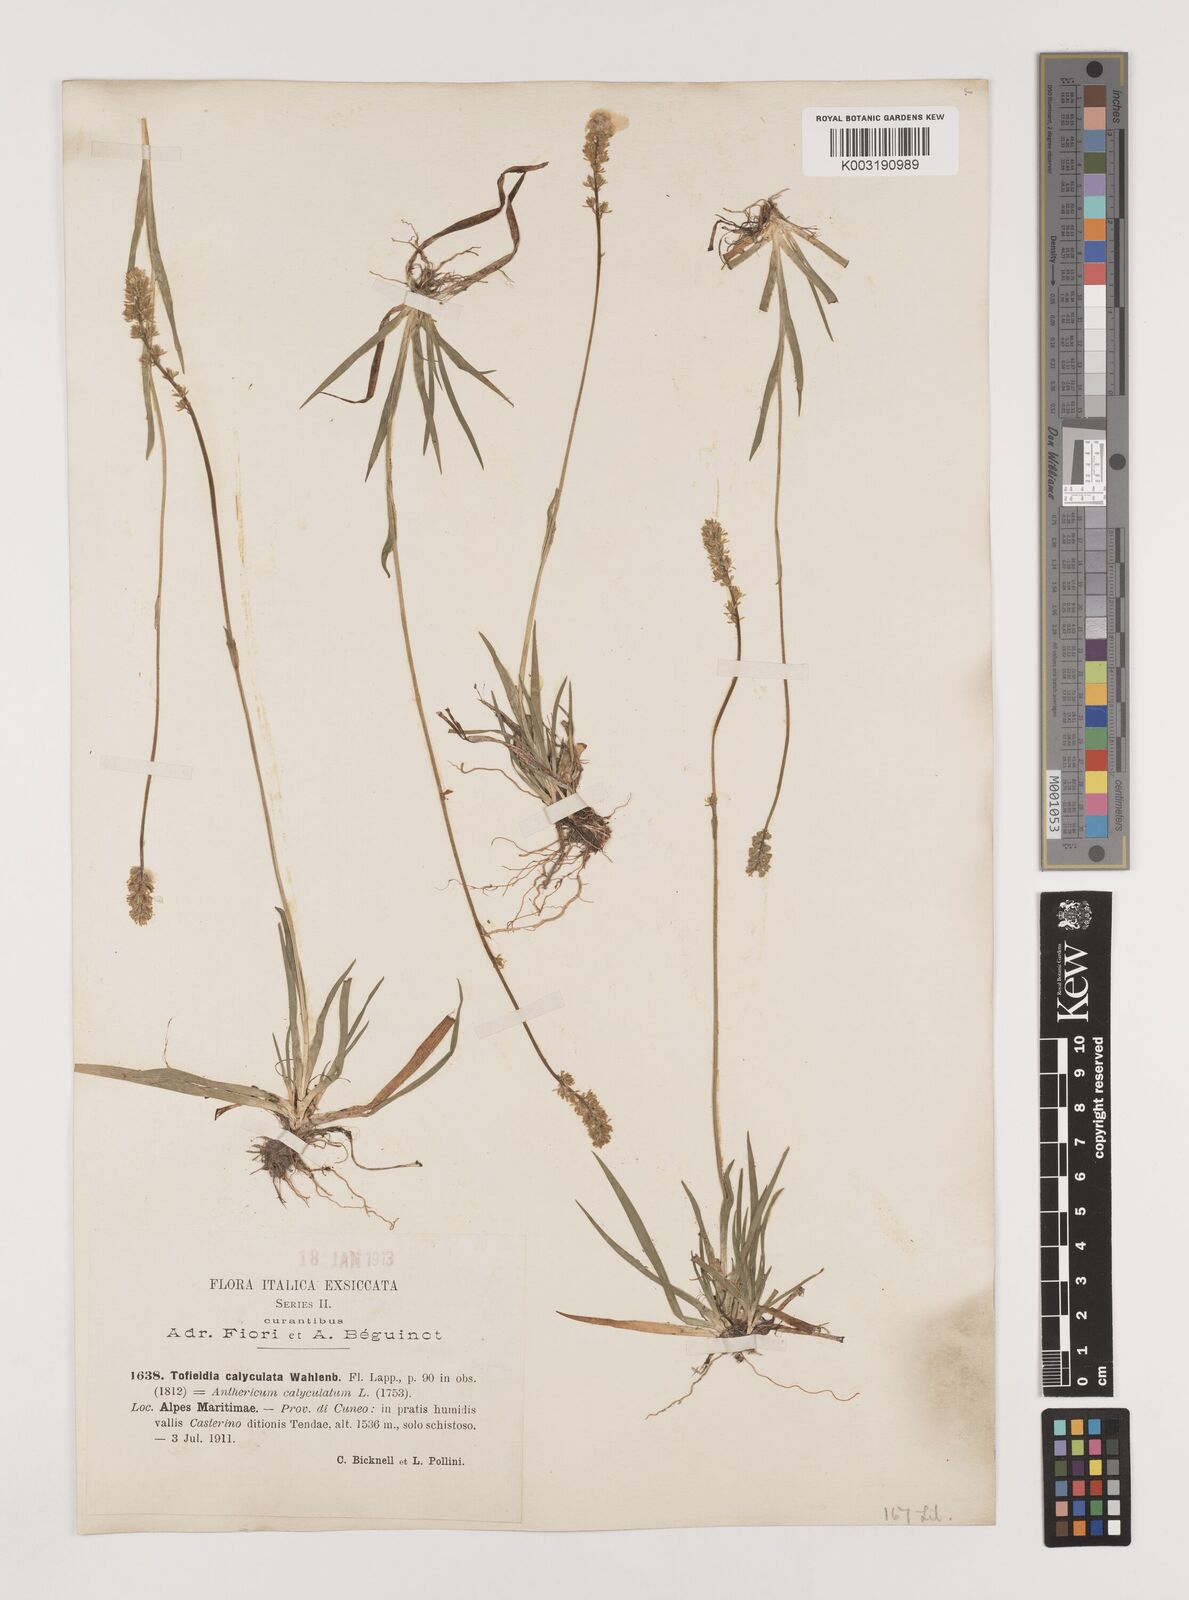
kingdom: Plantae
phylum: Tracheophyta
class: Liliopsida
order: Alismatales
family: Tofieldiaceae
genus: Tofieldia
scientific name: Tofieldia calyculata
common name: German-asphodel
